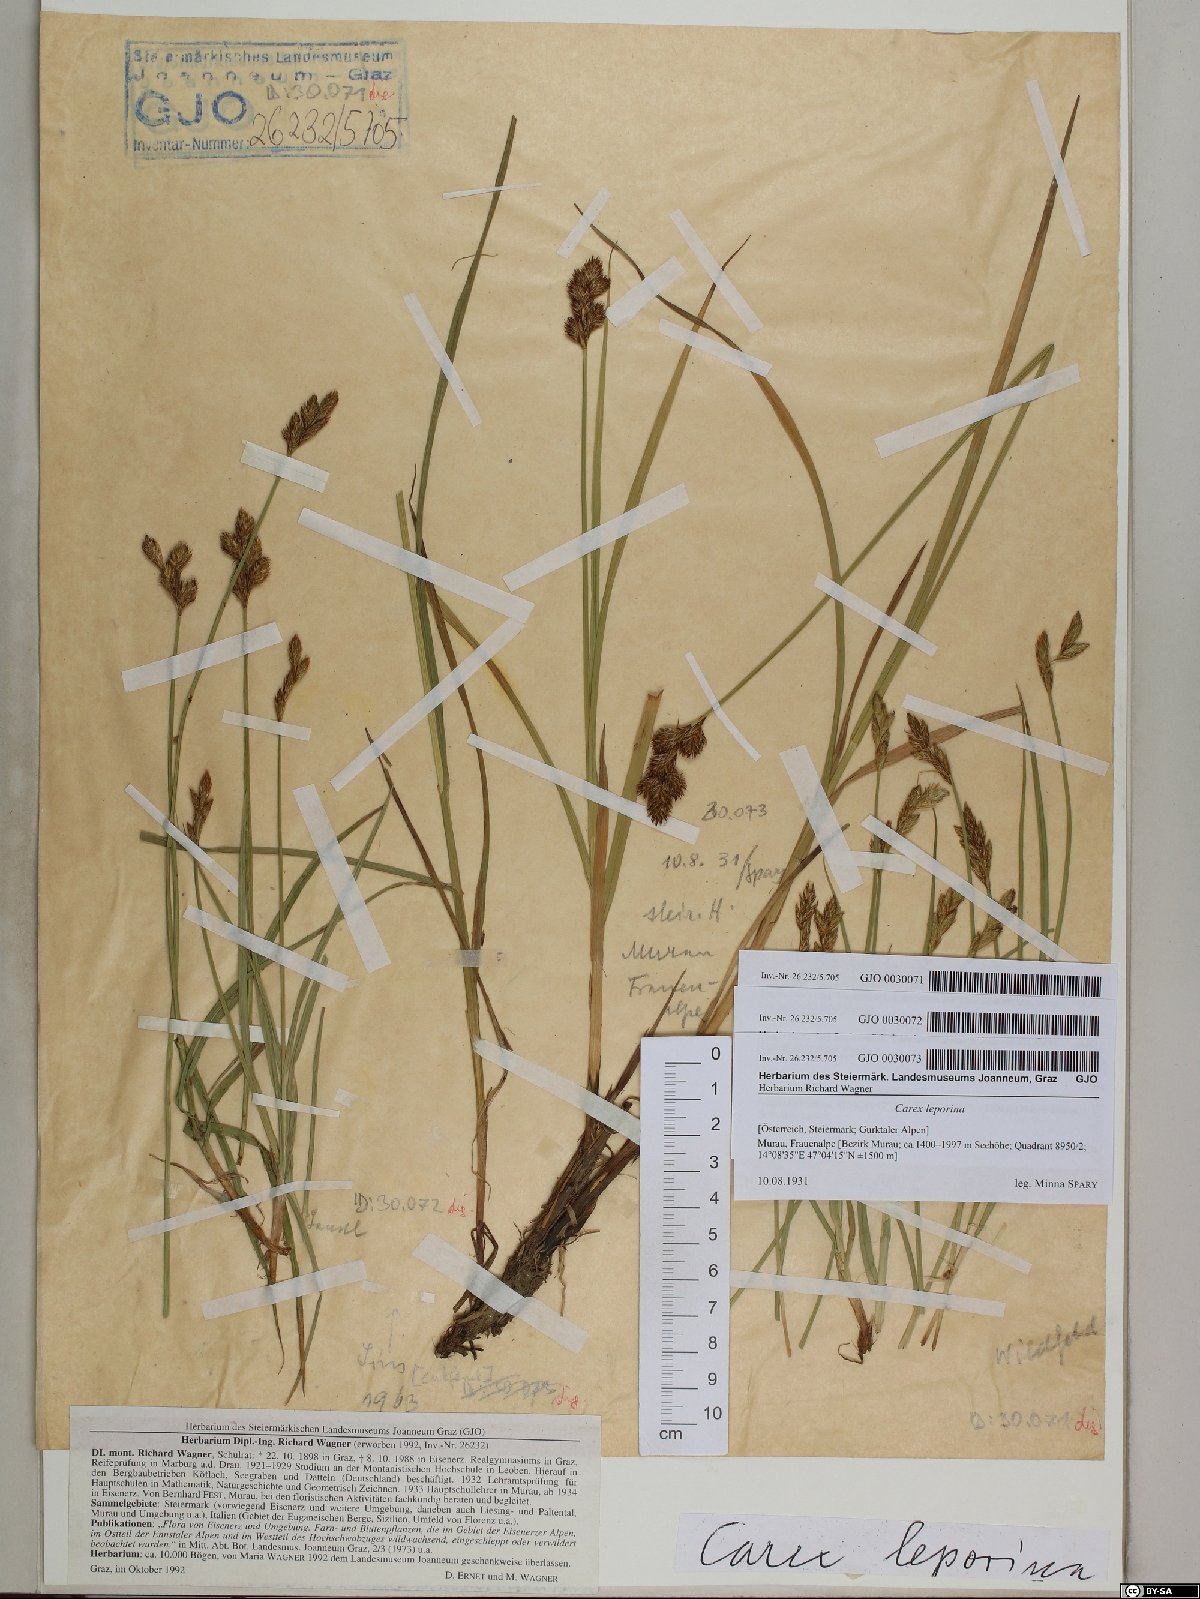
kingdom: Plantae
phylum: Tracheophyta
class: Liliopsida
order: Poales
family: Cyperaceae
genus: Carex
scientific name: Carex leporina
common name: Oval sedge
